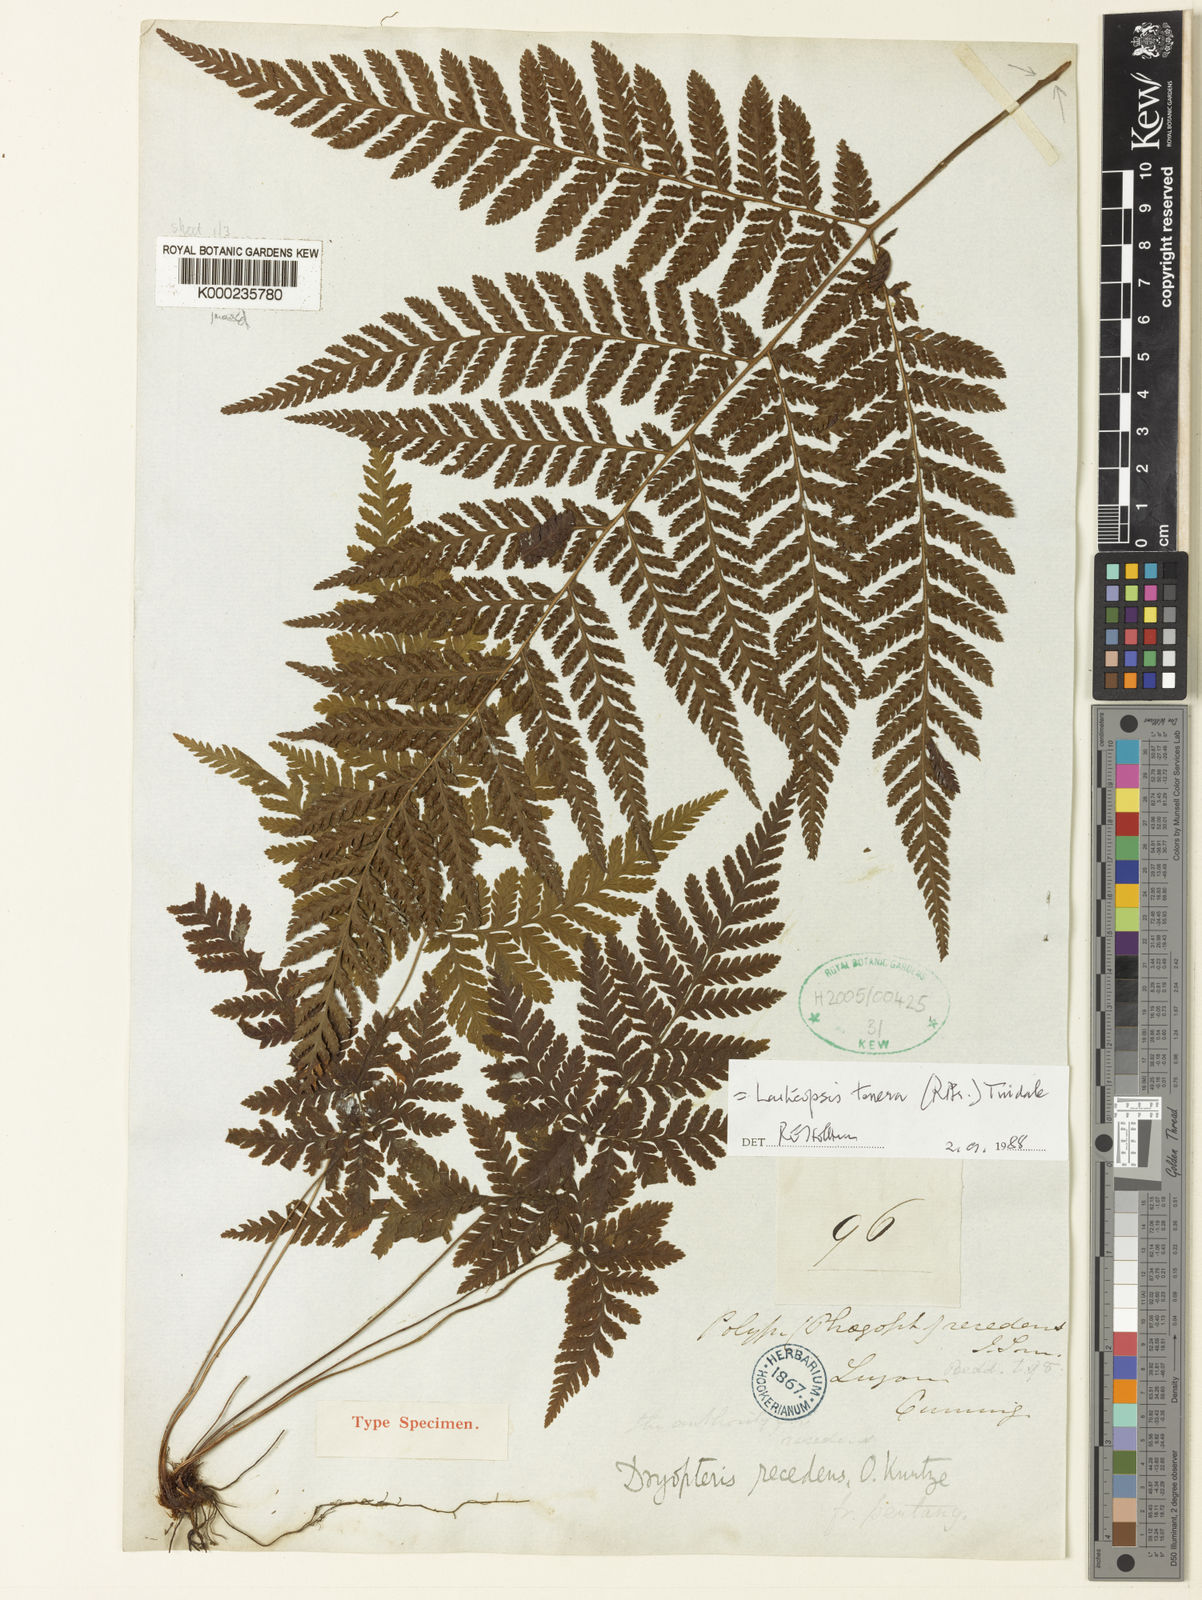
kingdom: Plantae
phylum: Tracheophyta
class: Polypodiopsida
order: Polypodiales
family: Dryopteridaceae
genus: Lastreopsis
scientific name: Lastreopsis tenera
